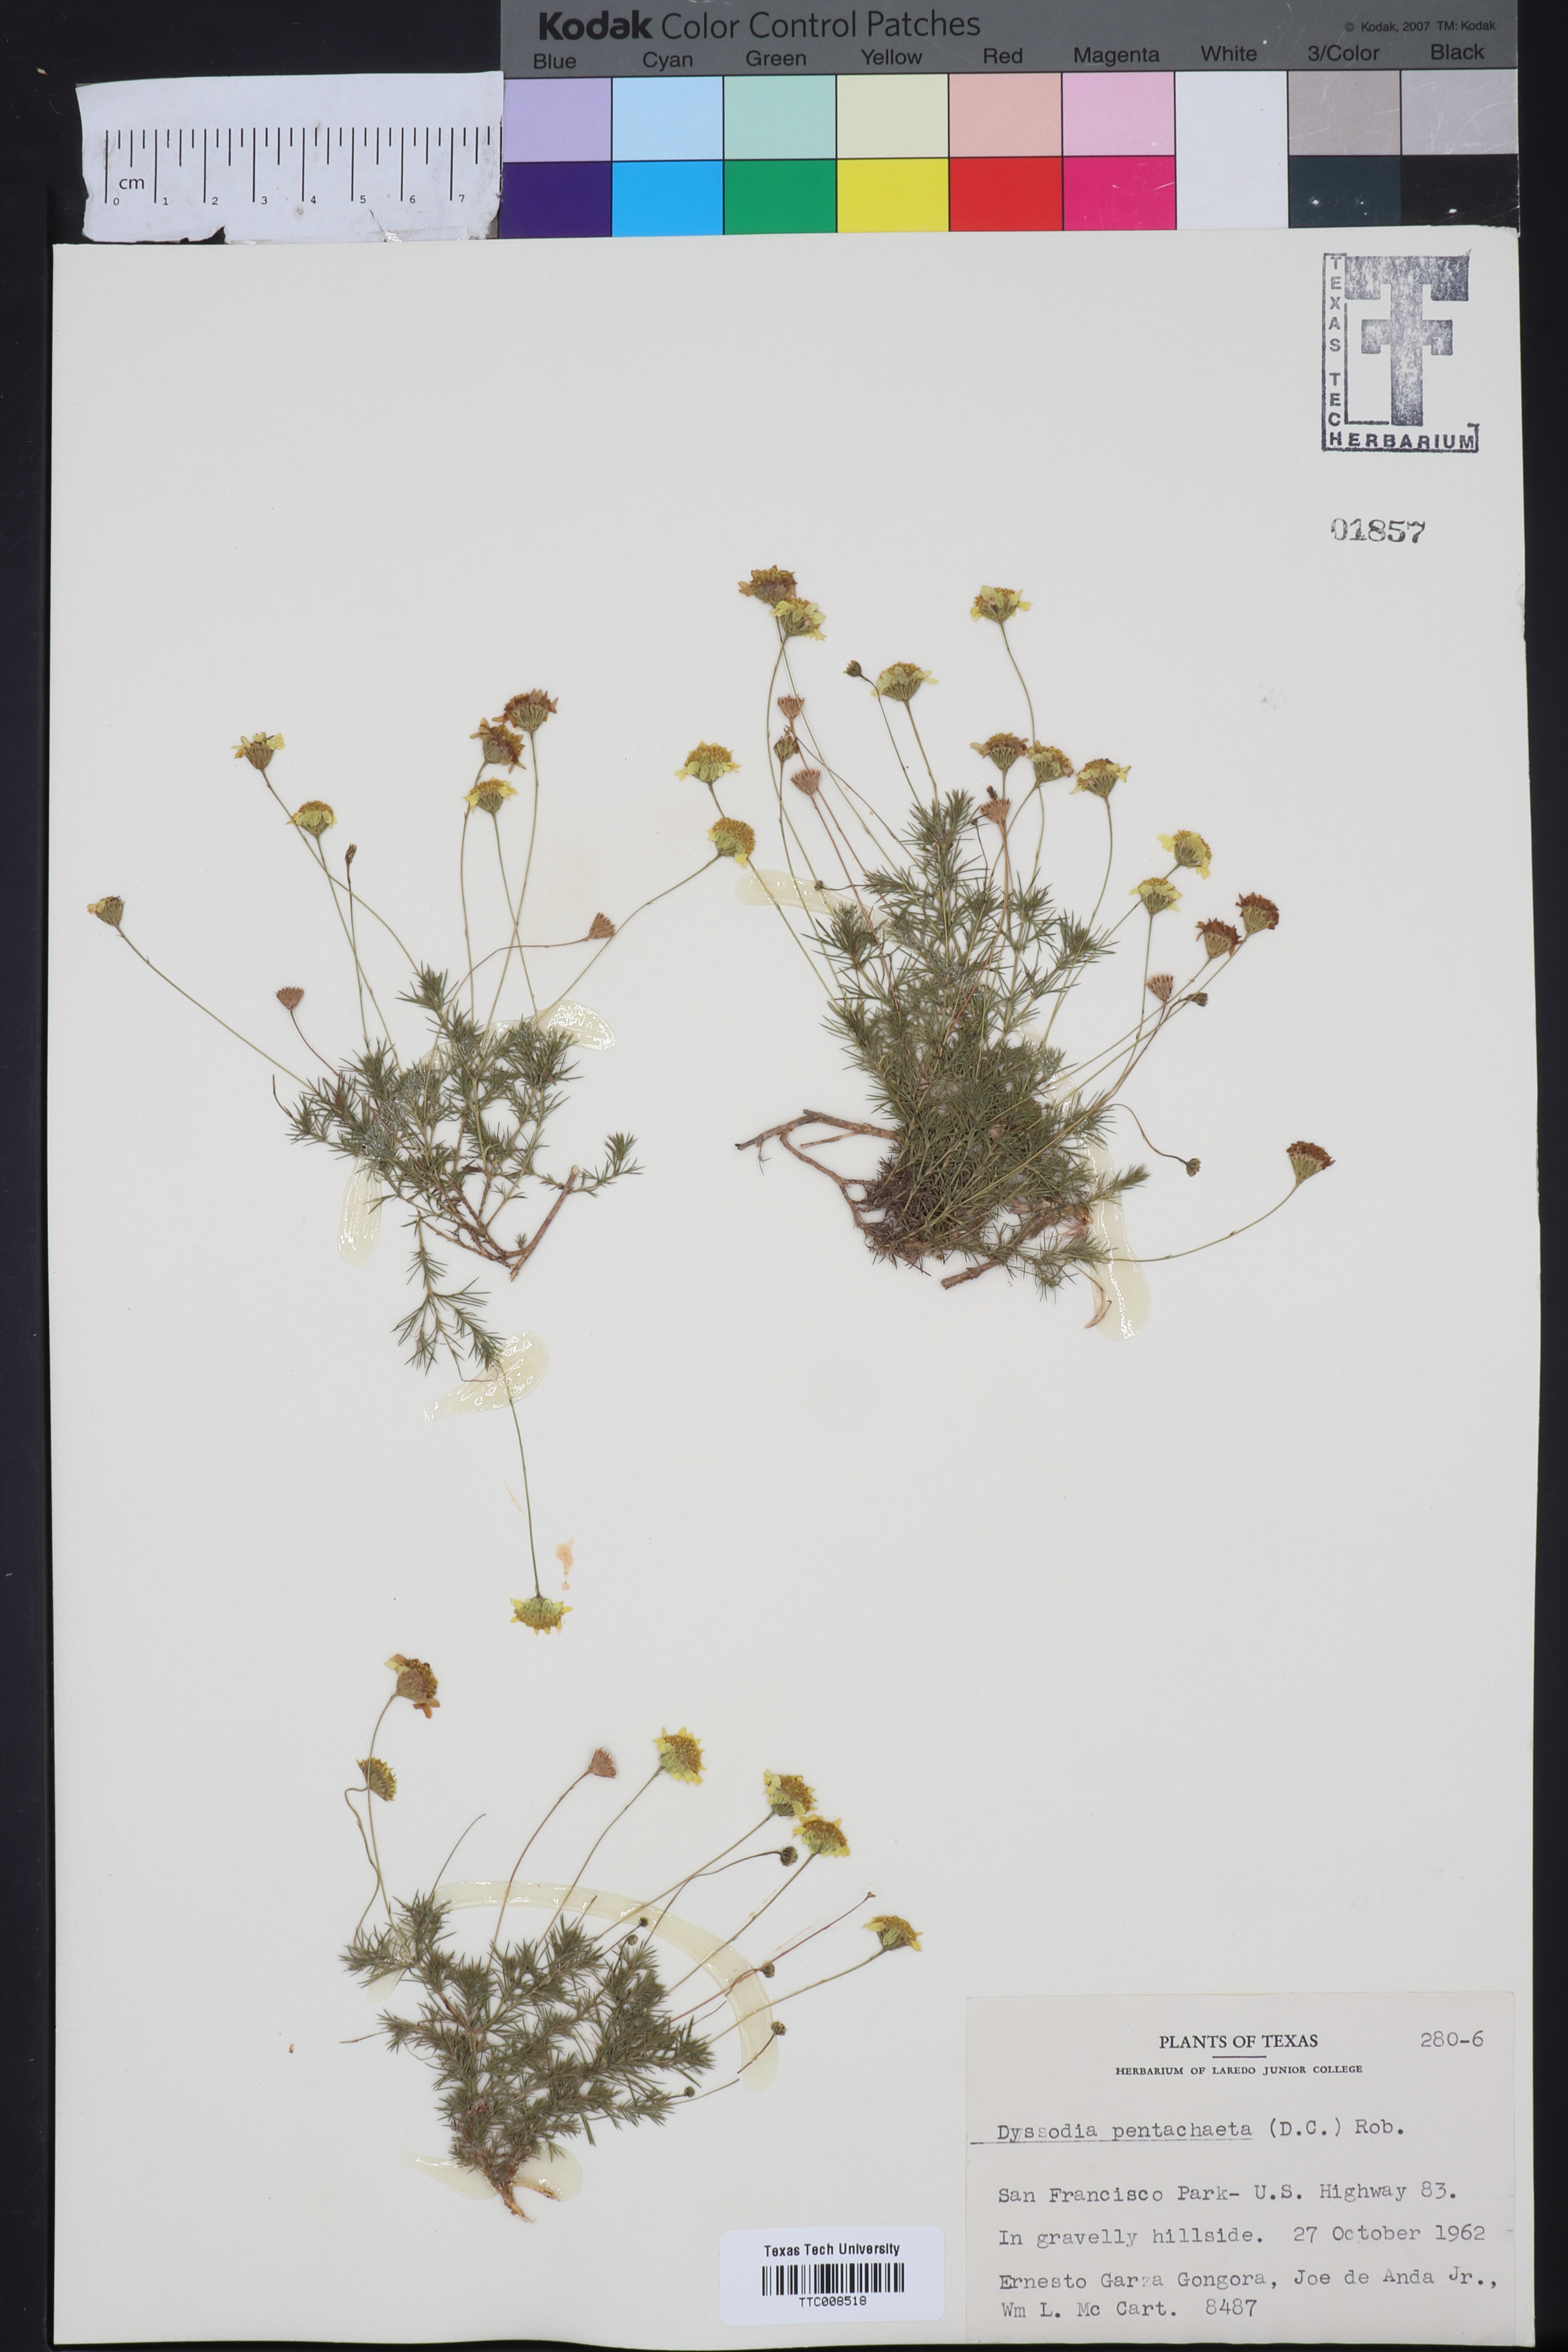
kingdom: Plantae
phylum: Tracheophyta
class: Magnoliopsida
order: Asterales
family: Asteraceae
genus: Thymophylla
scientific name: Thymophylla pentachaeta
